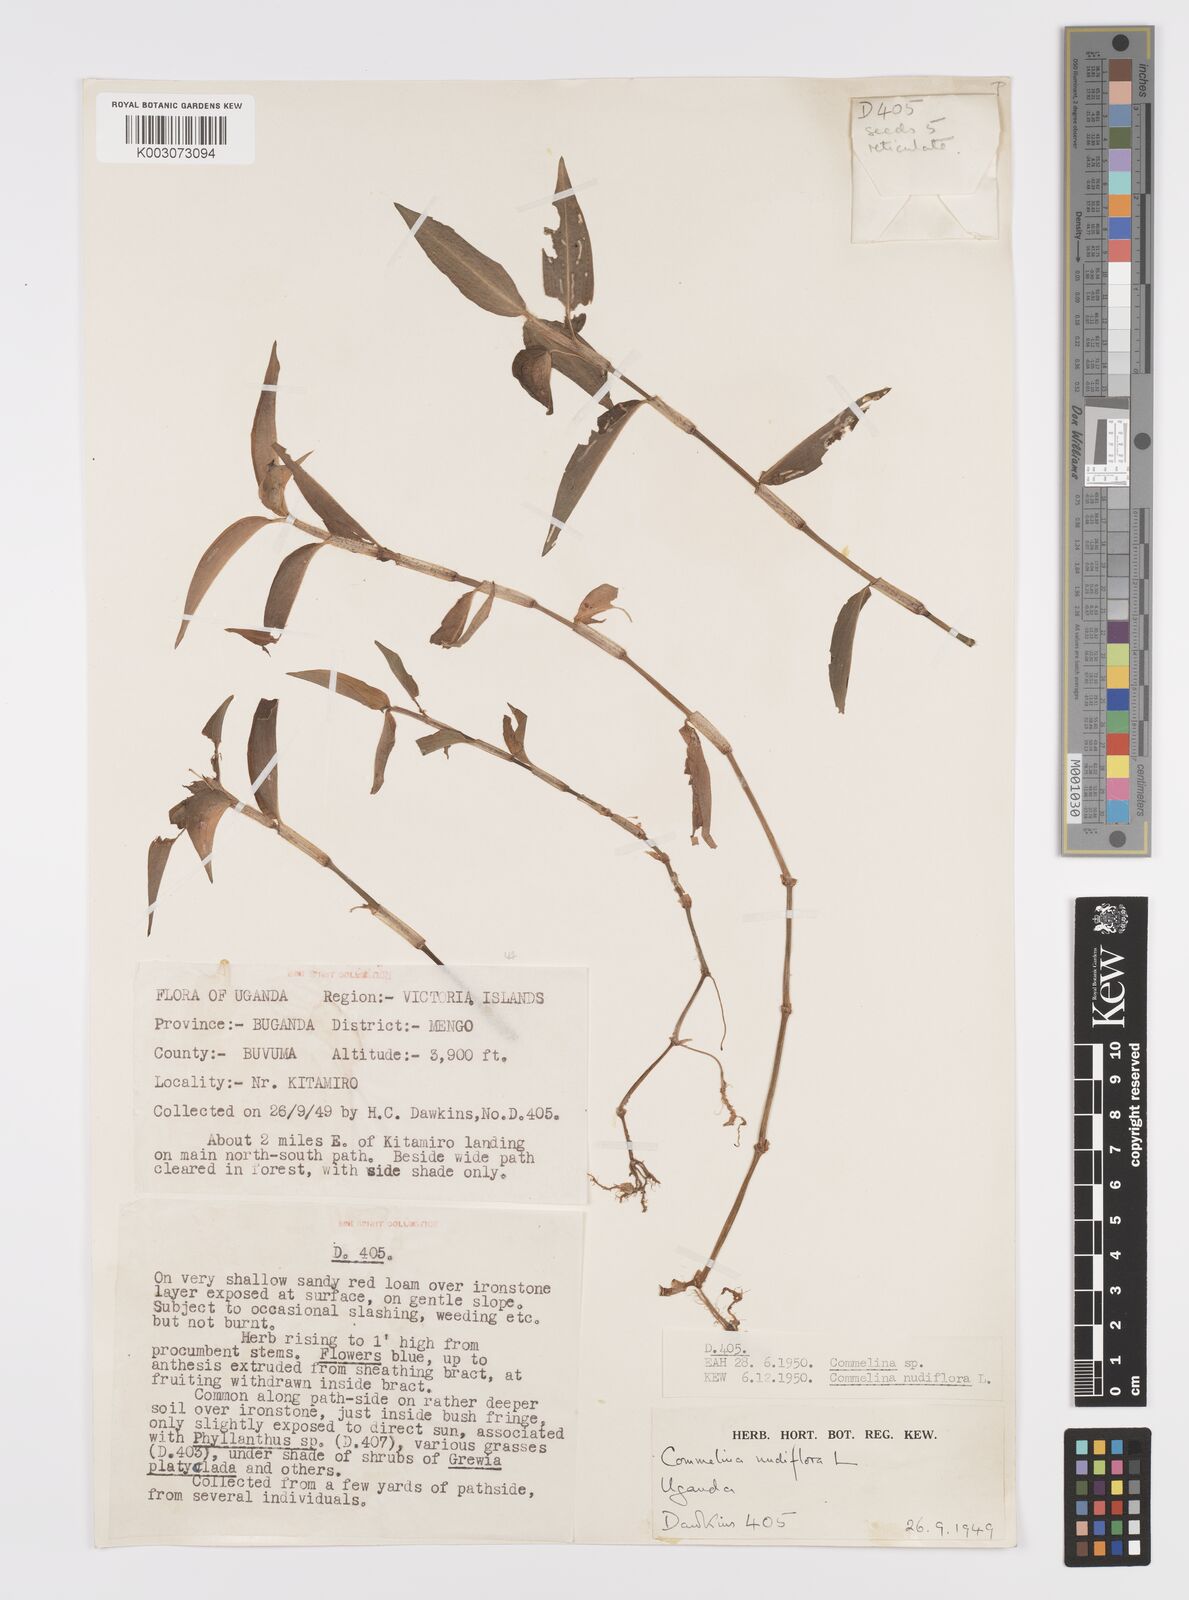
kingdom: Plantae
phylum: Tracheophyta
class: Liliopsida
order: Commelinales
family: Commelinaceae
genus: Commelina
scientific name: Commelina diffusa
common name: Climbing dayflower
